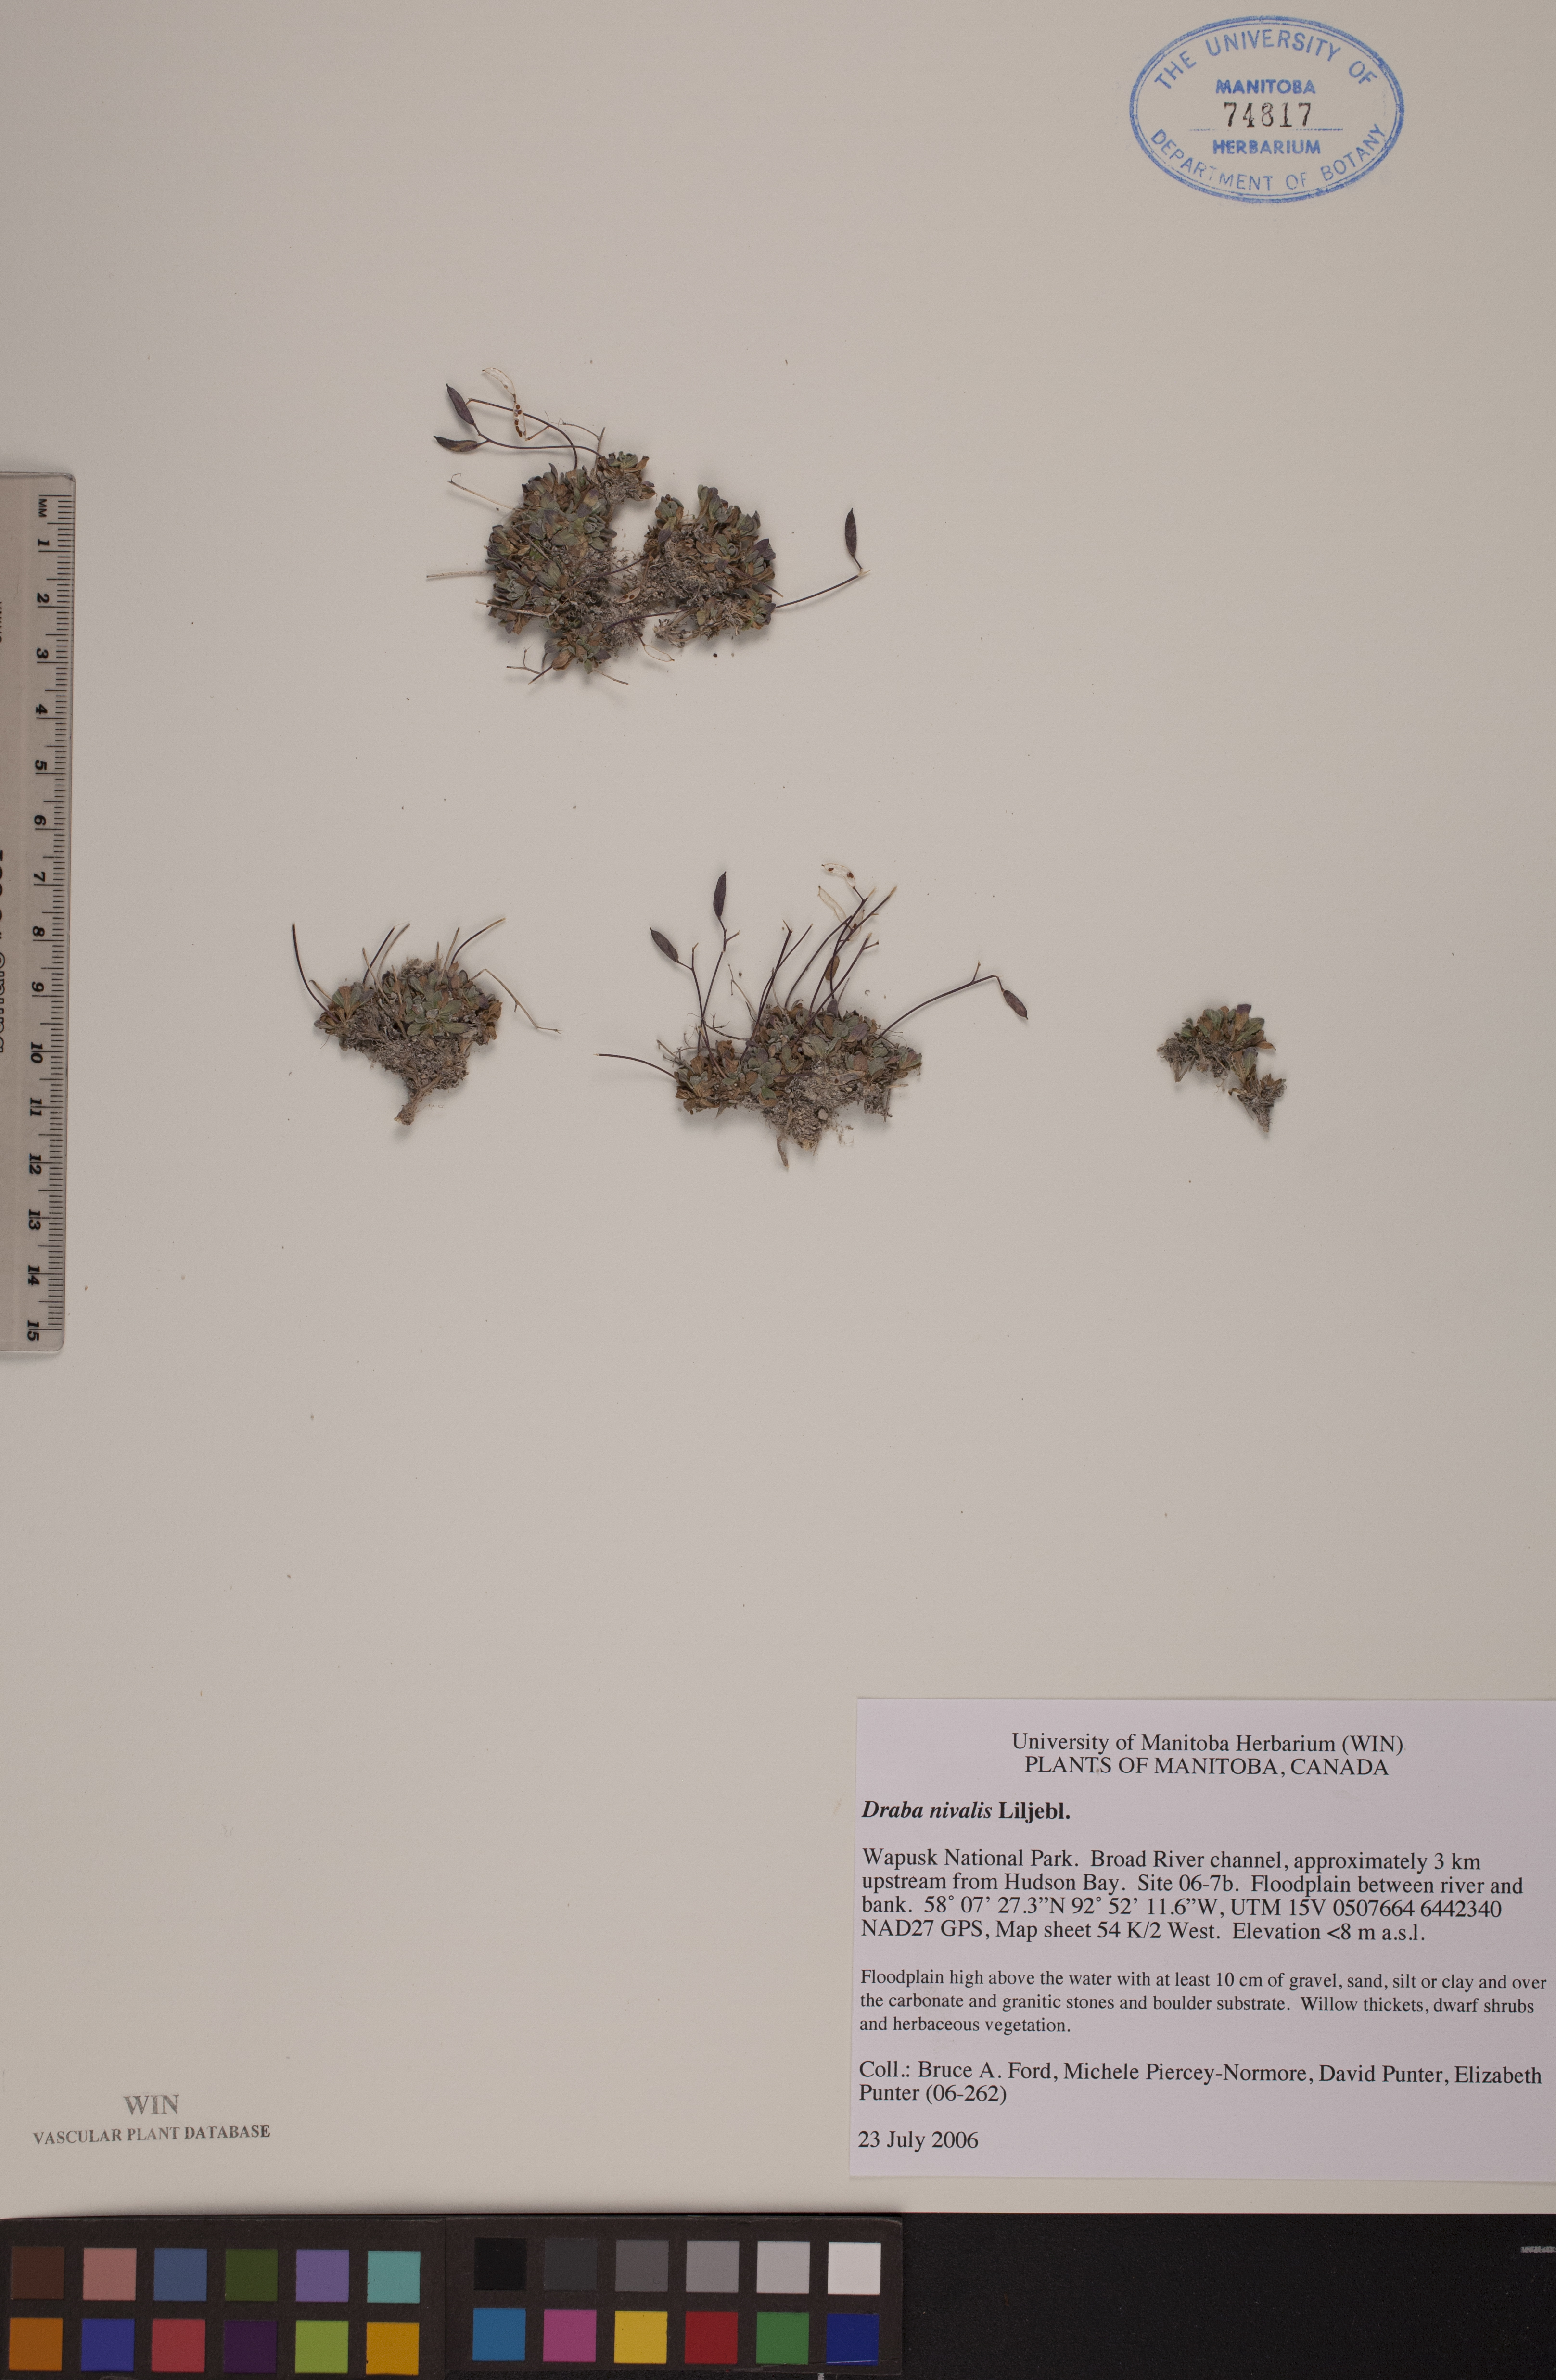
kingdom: Plantae
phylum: Tracheophyta
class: Magnoliopsida
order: Brassicales
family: Brassicaceae
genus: Draba
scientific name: Draba nivalis
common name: Snow draba
